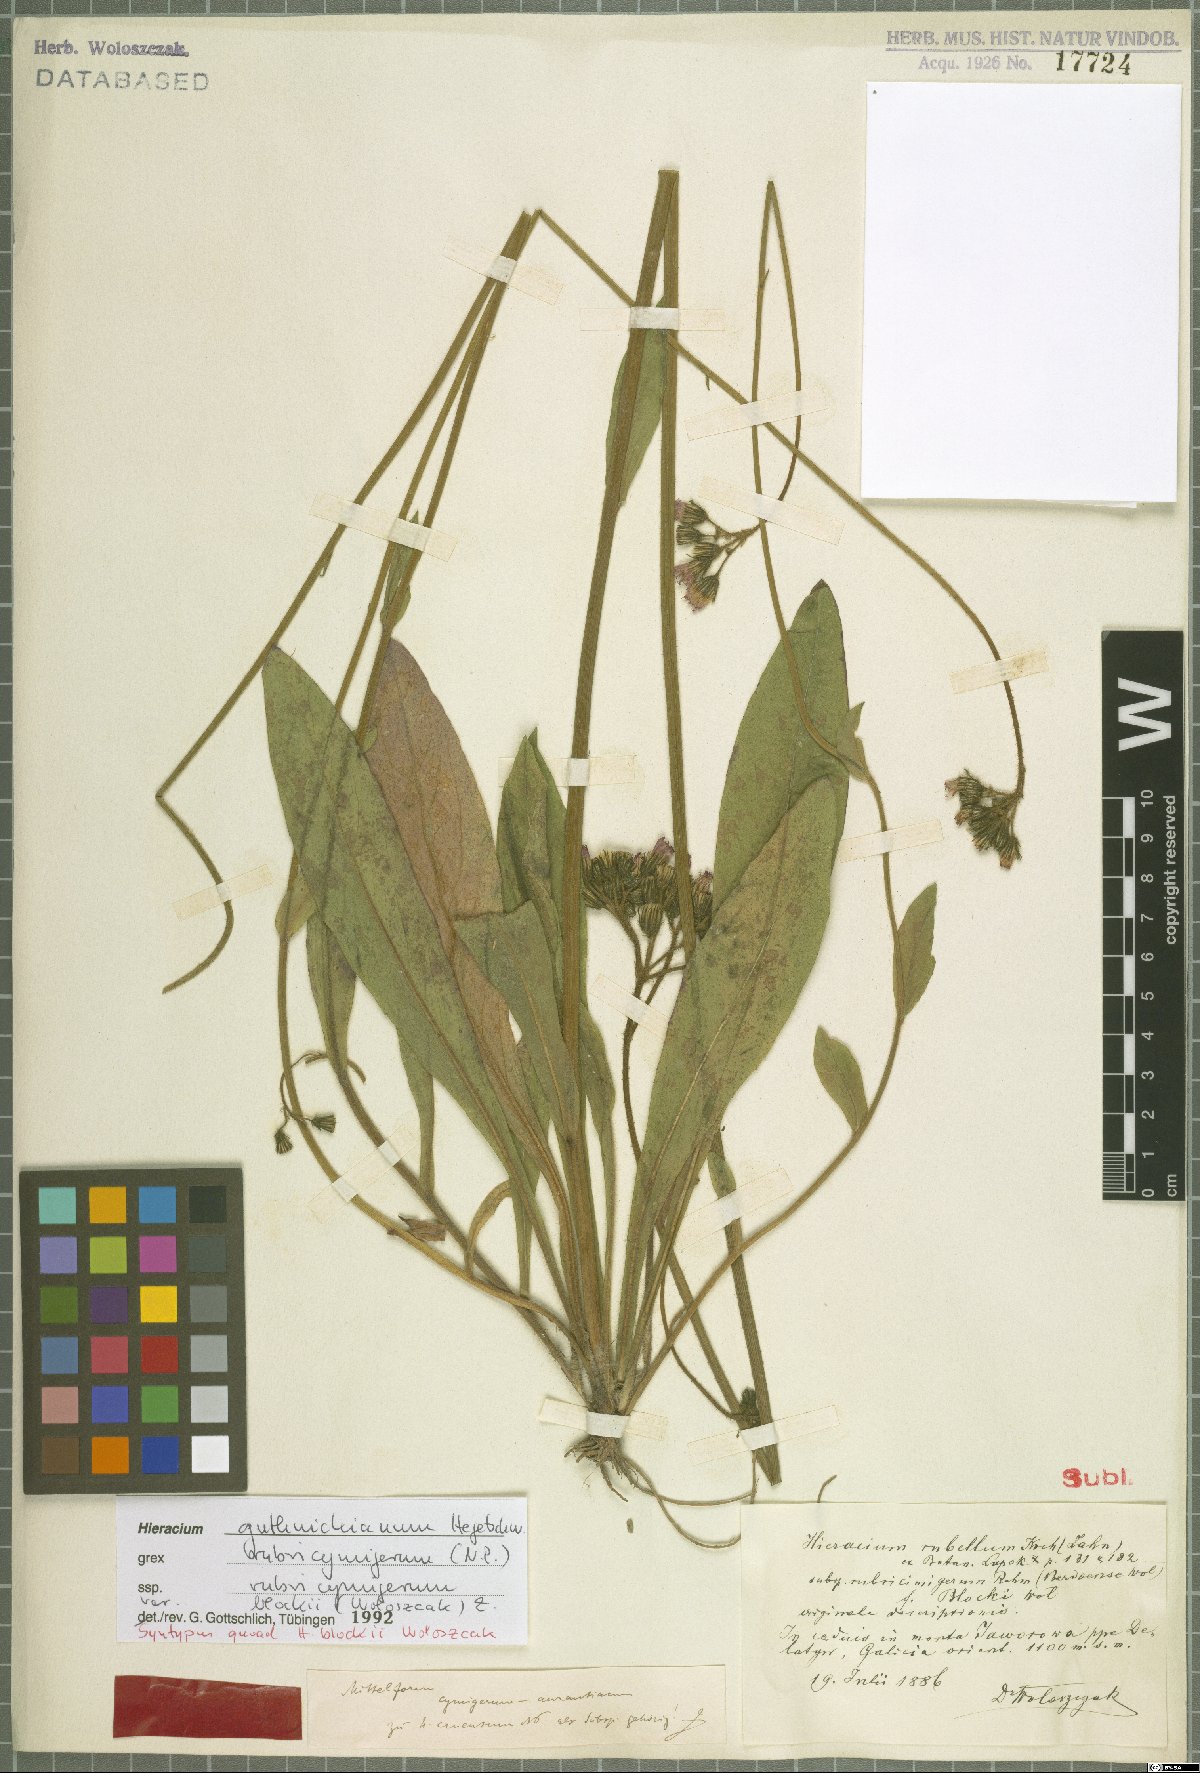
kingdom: Plantae
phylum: Tracheophyta
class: Magnoliopsida
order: Asterales
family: Asteraceae
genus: Pilosella
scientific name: Pilosella guthnikiana
